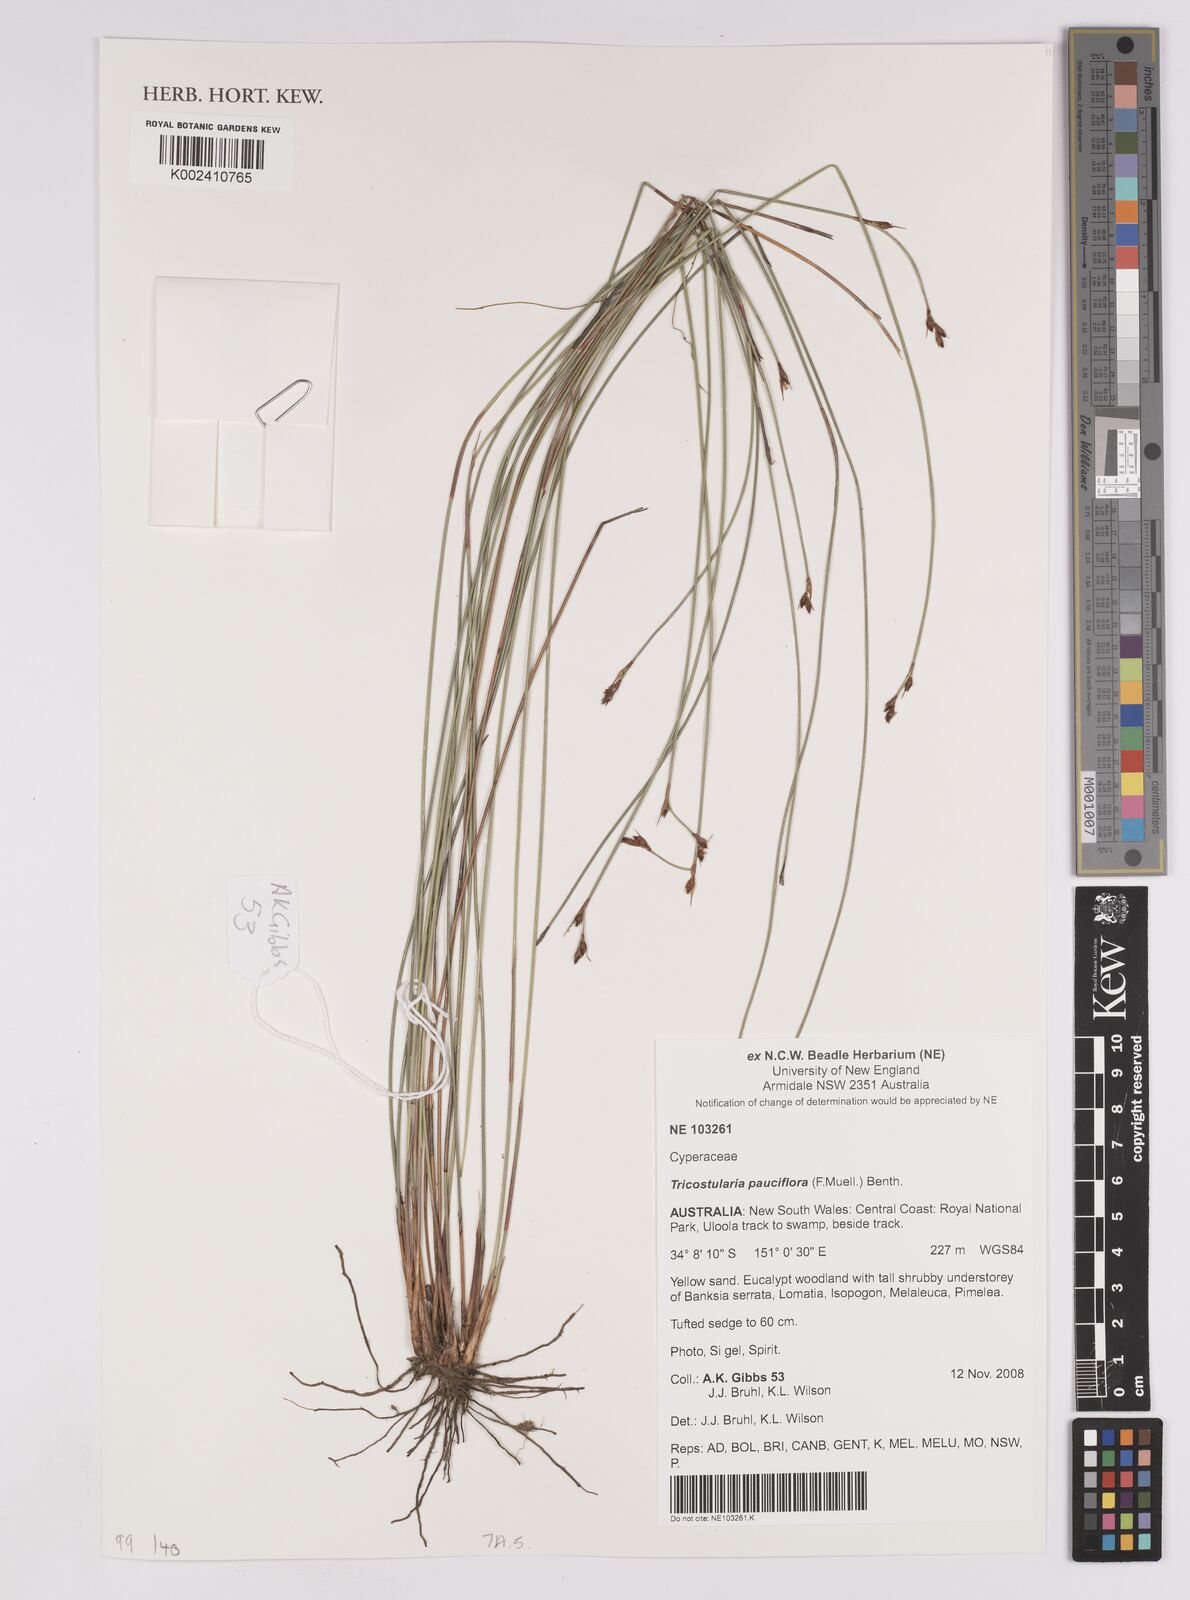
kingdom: Plantae
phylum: Tracheophyta
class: Liliopsida
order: Poales
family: Cyperaceae
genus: Tricostularia
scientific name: Tricostularia pauciflora
